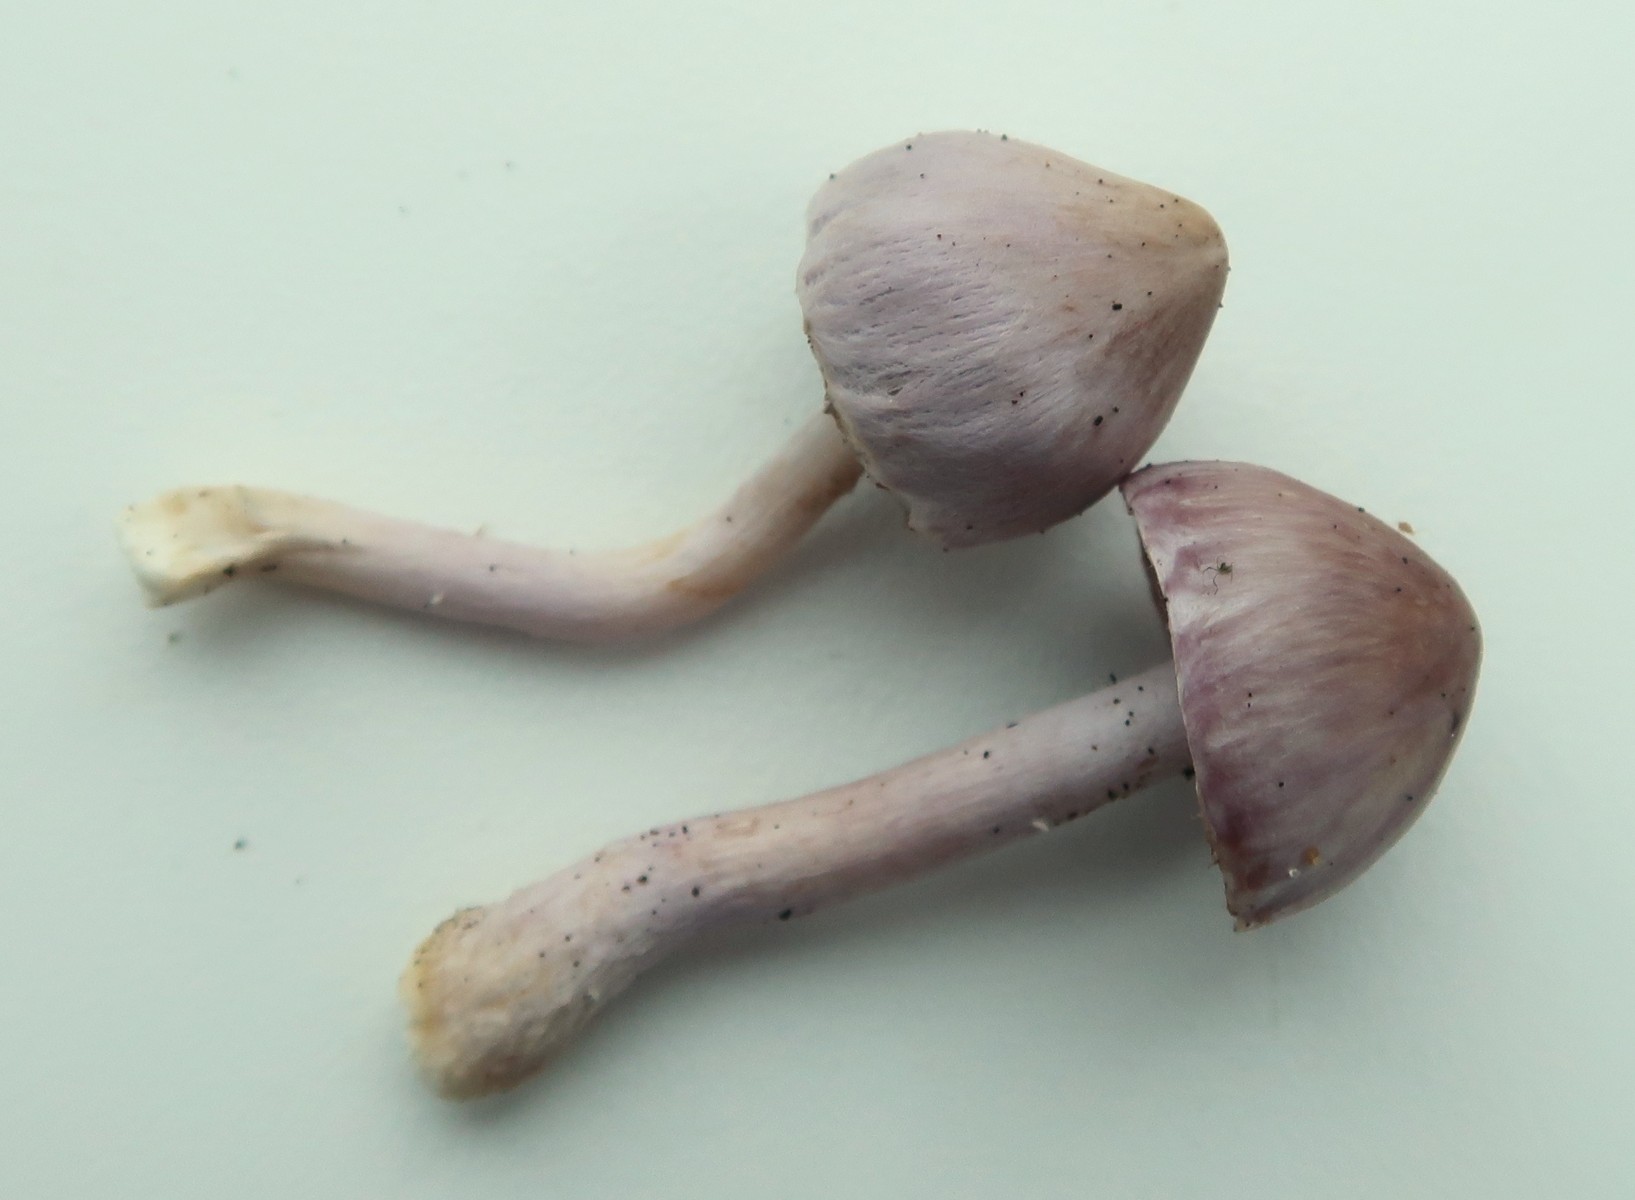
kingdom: Fungi
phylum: Basidiomycota
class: Agaricomycetes
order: Agaricales
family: Inocybaceae
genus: Inocybe
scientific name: Inocybe geophylla
